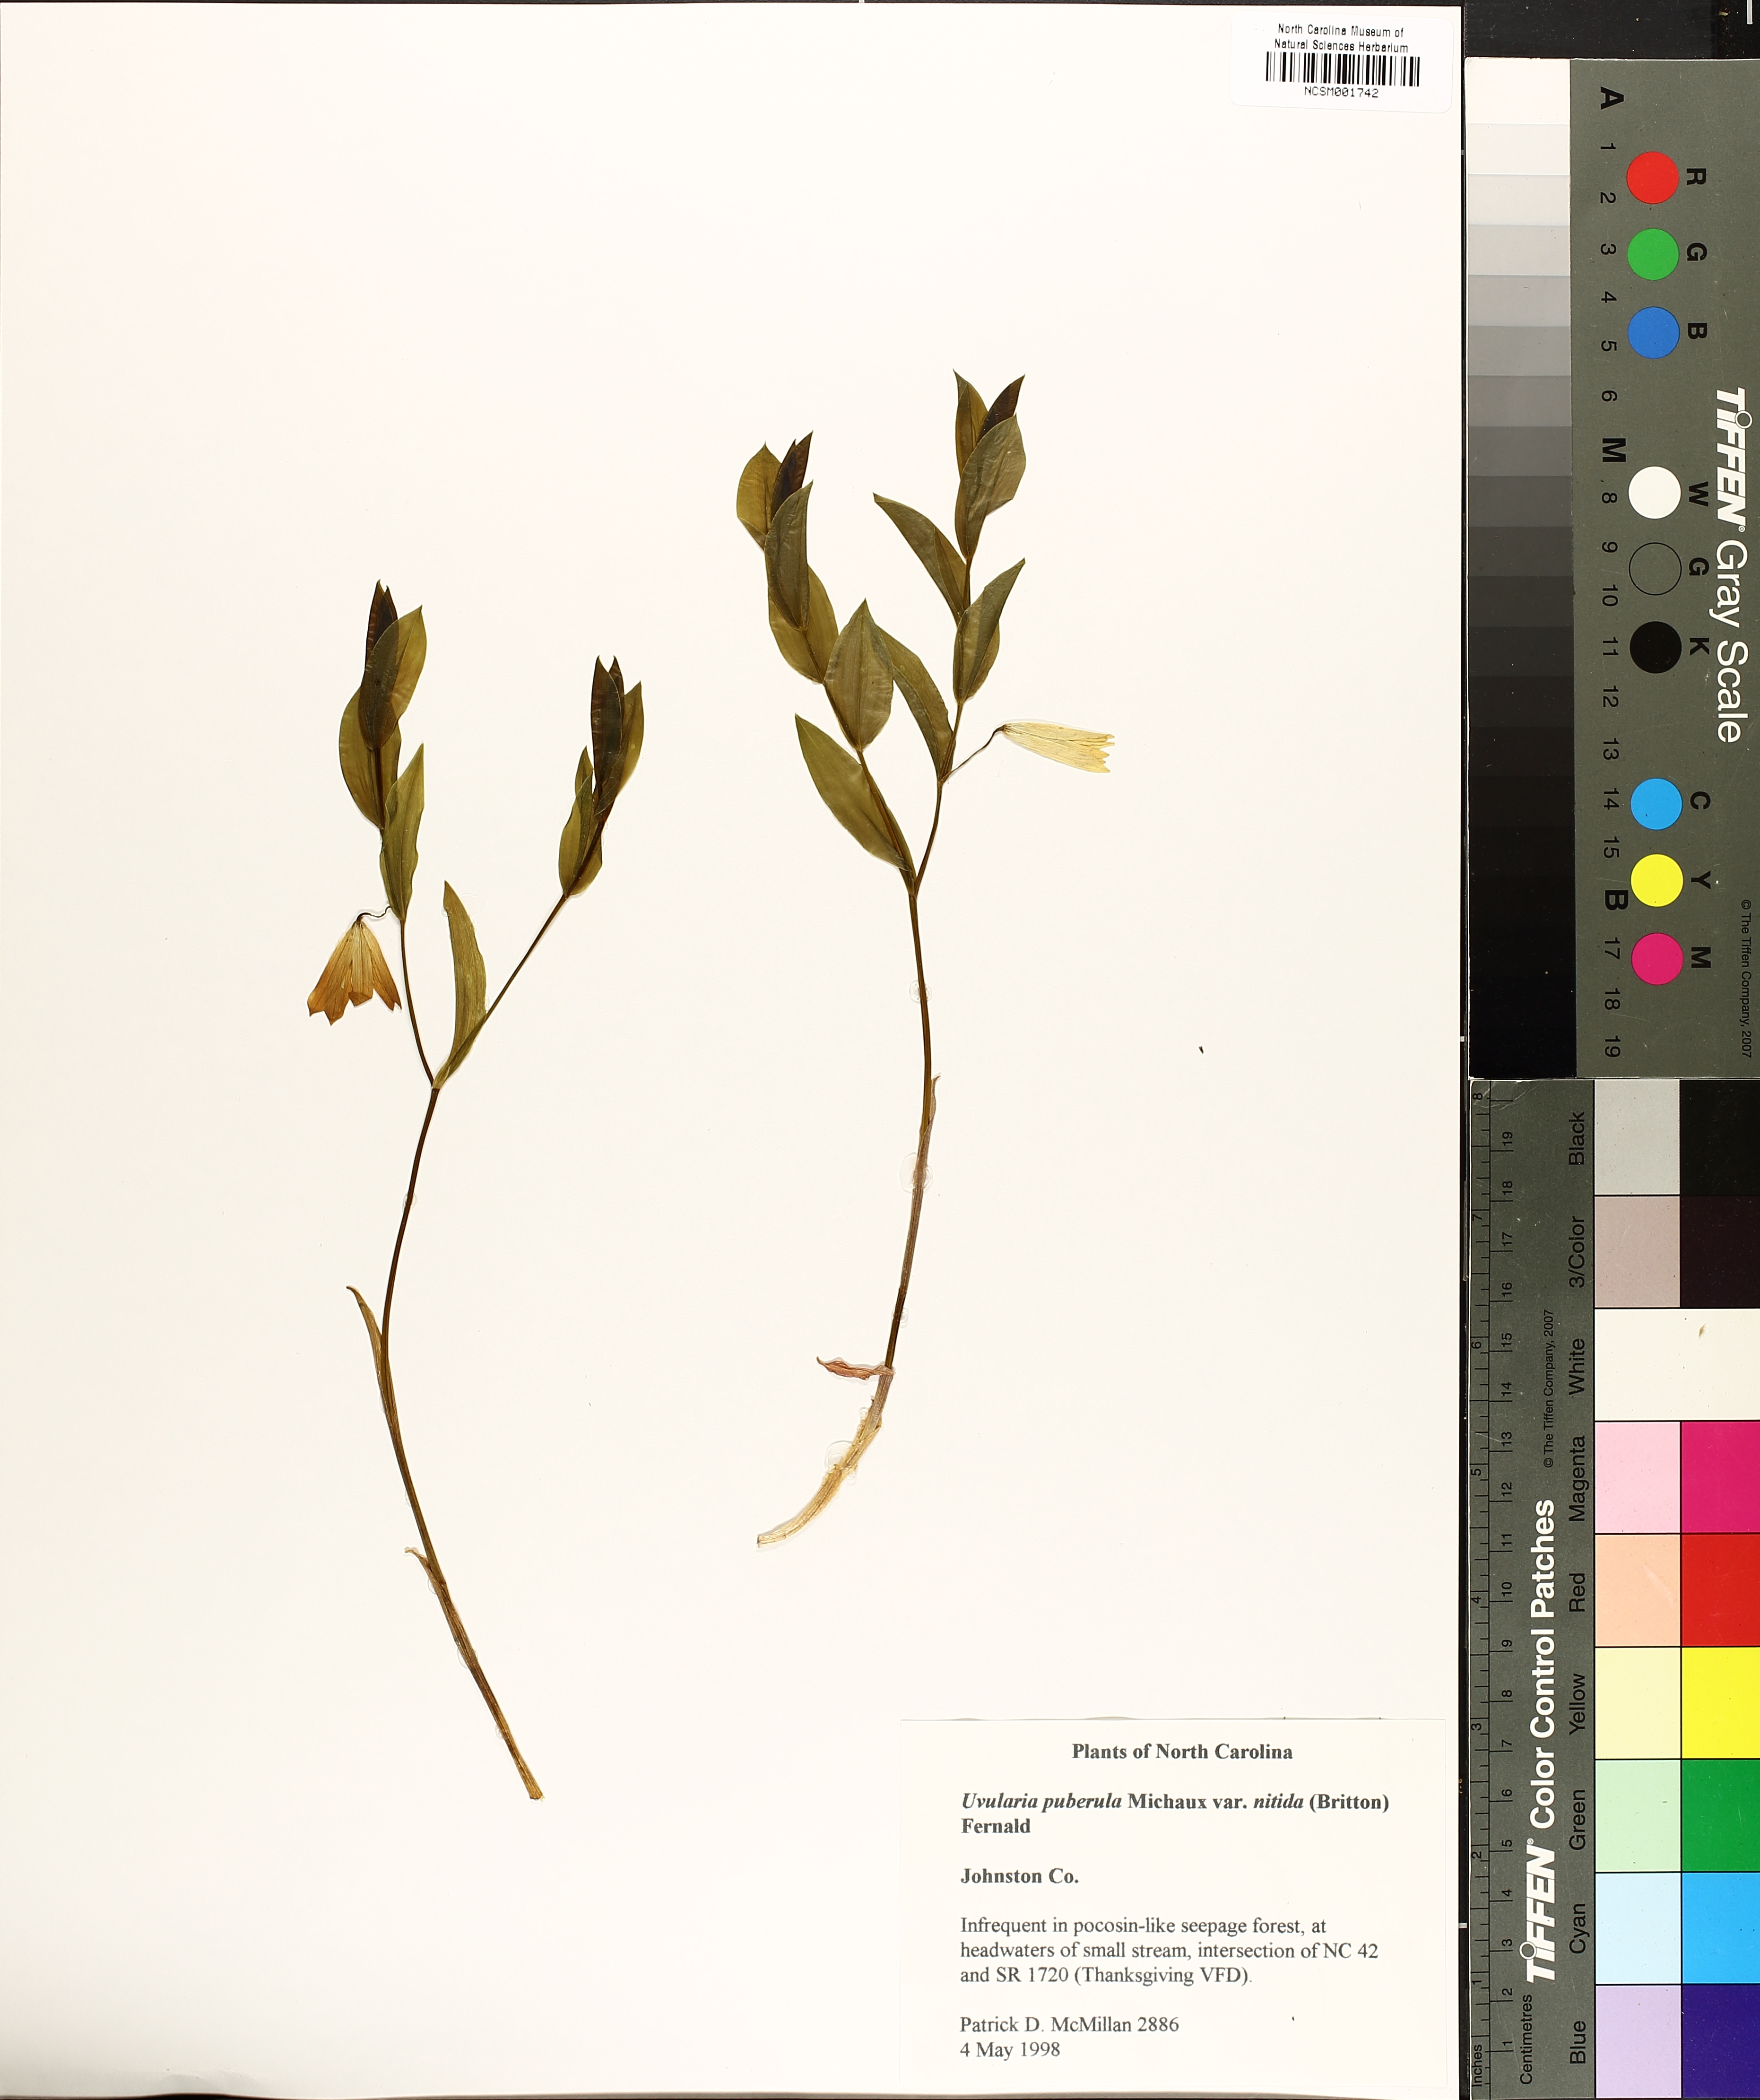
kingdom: Plantae
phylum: Tracheophyta
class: Liliopsida
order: Liliales
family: Colchicaceae
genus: Uvularia
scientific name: Uvularia puberula
